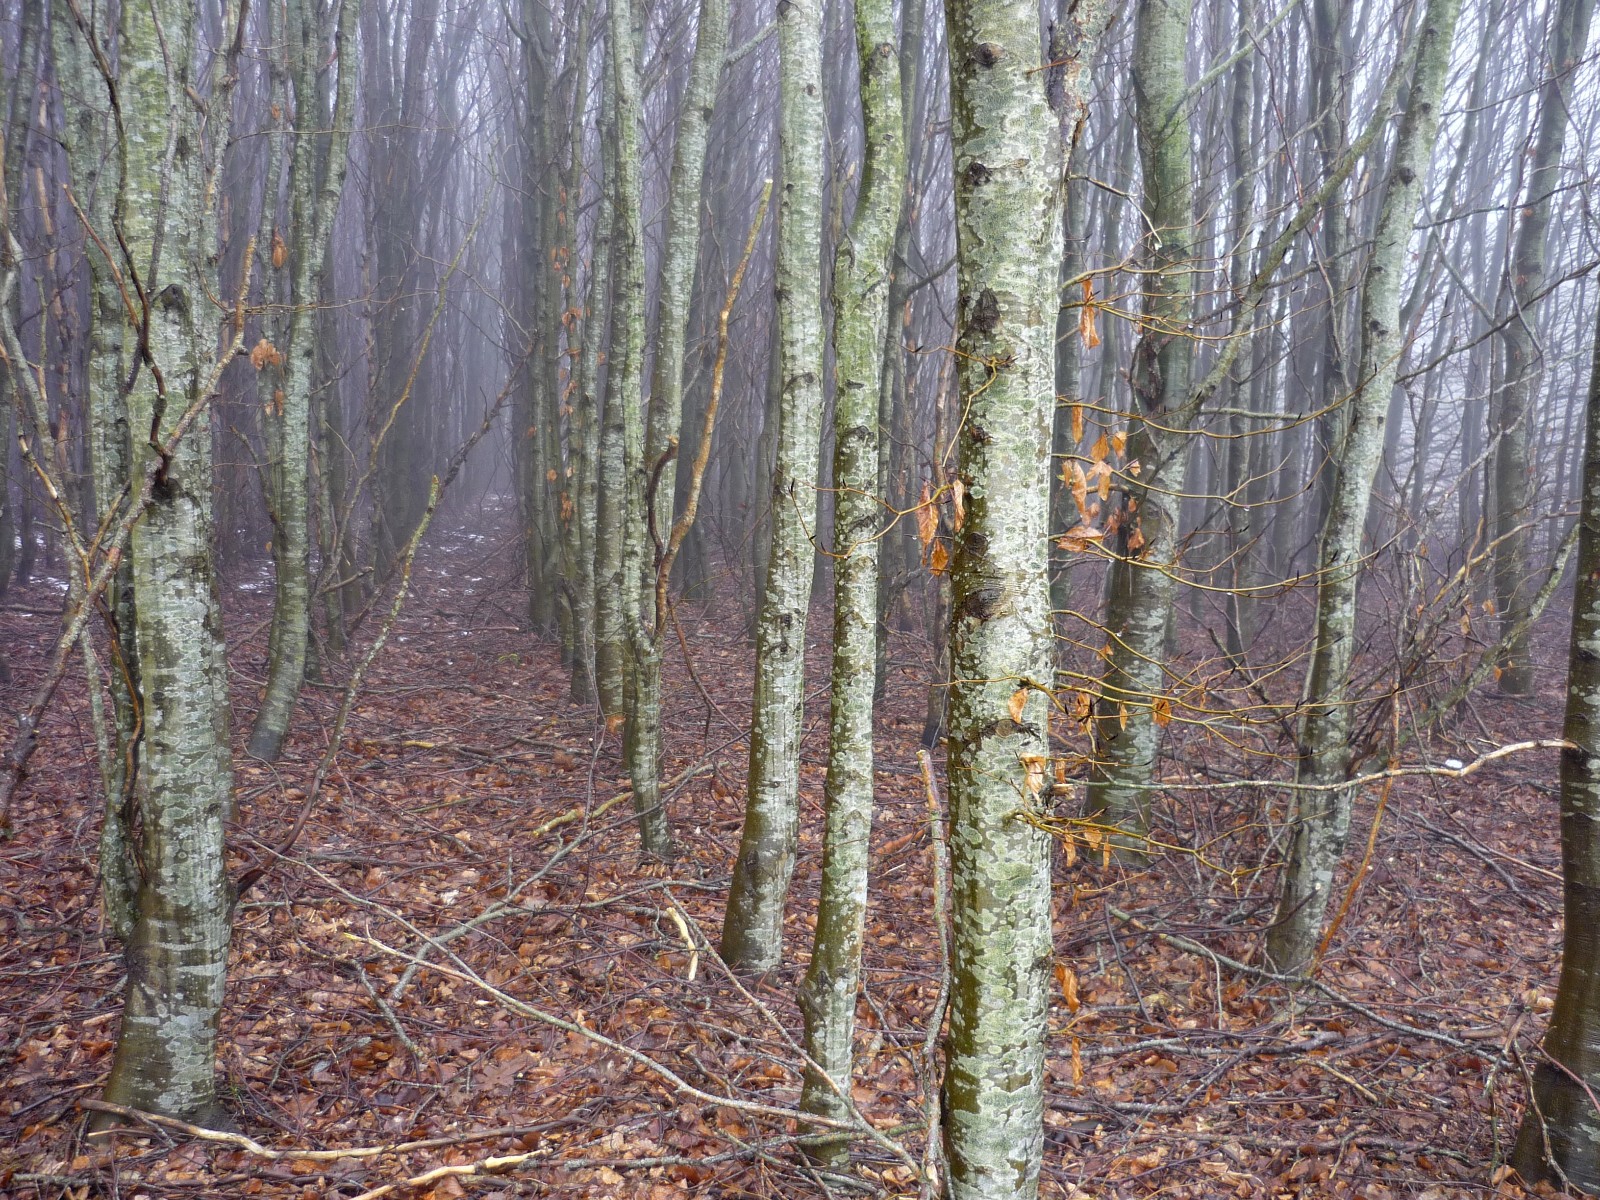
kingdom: Fungi
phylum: Ascomycota
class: Lecanoromycetes
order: Lecanorales
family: Lecanoraceae
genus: Lecidella
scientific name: Lecidella elaeochroma
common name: grågrøn skivelav
